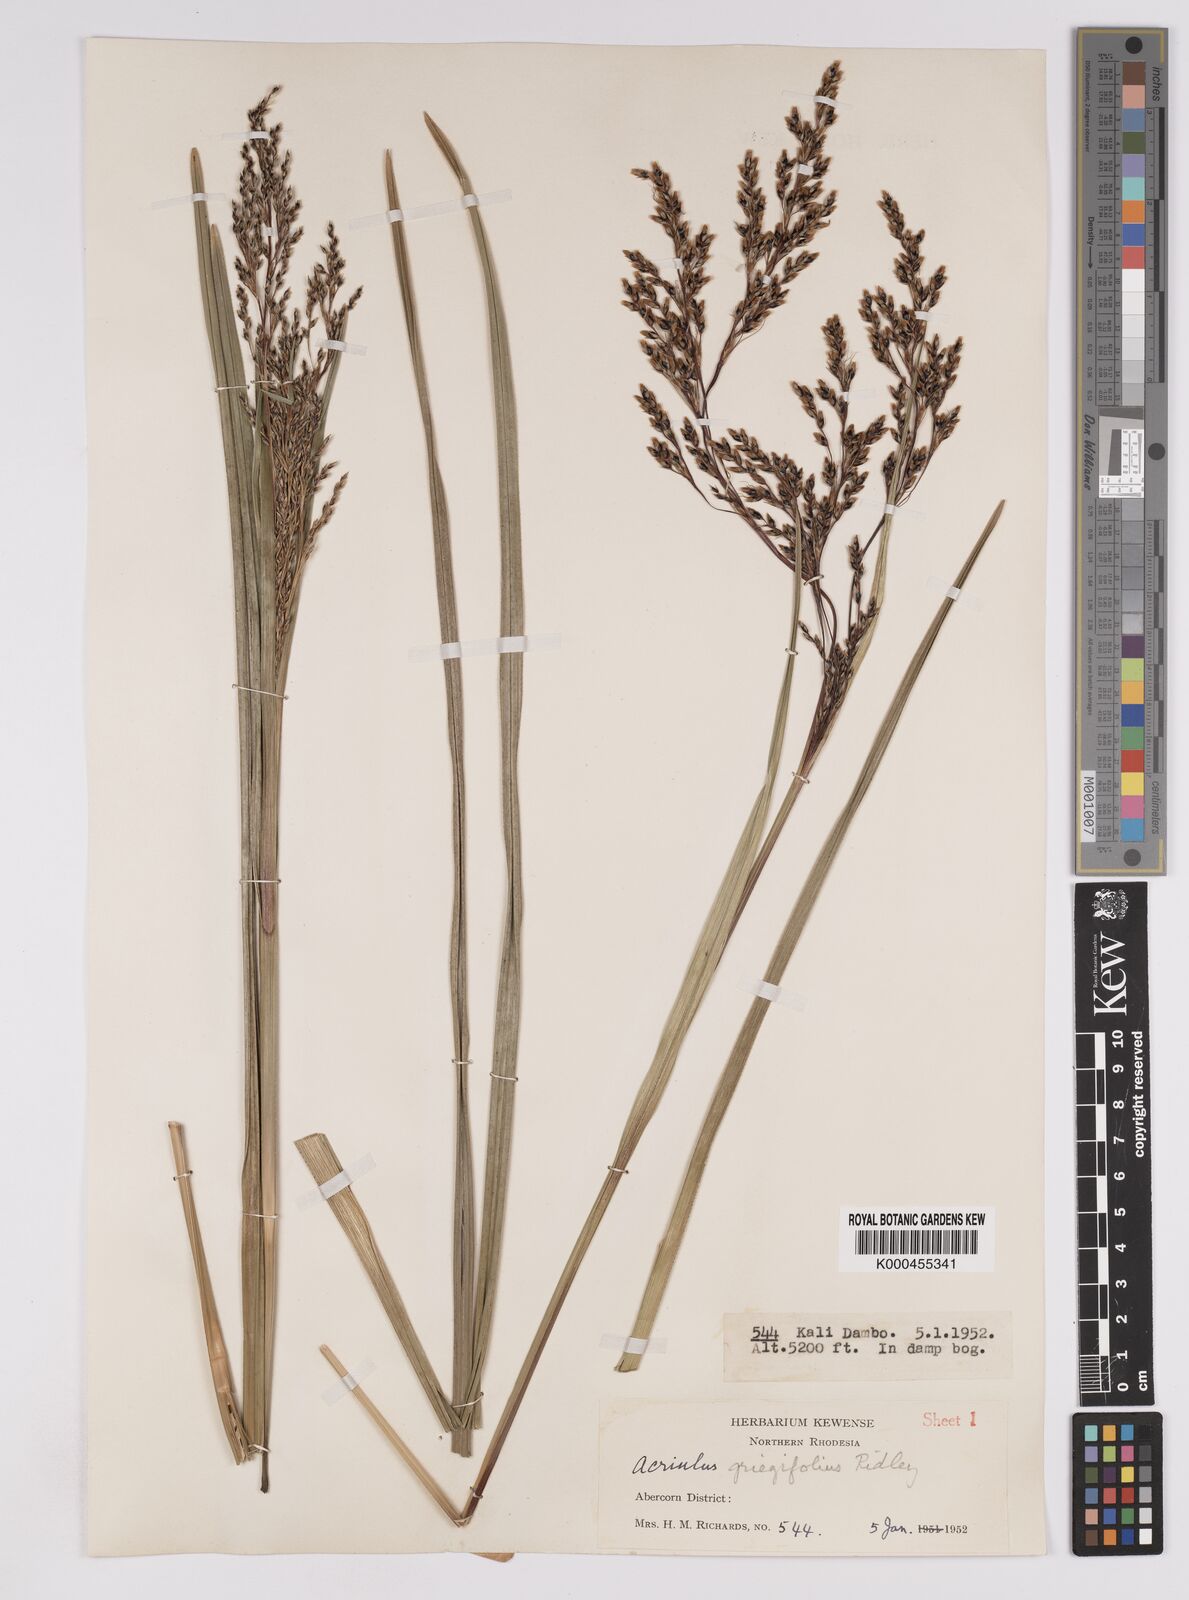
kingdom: Plantae
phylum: Tracheophyta
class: Liliopsida
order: Poales
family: Cyperaceae
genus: Scleria
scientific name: Scleria greigiifolia
